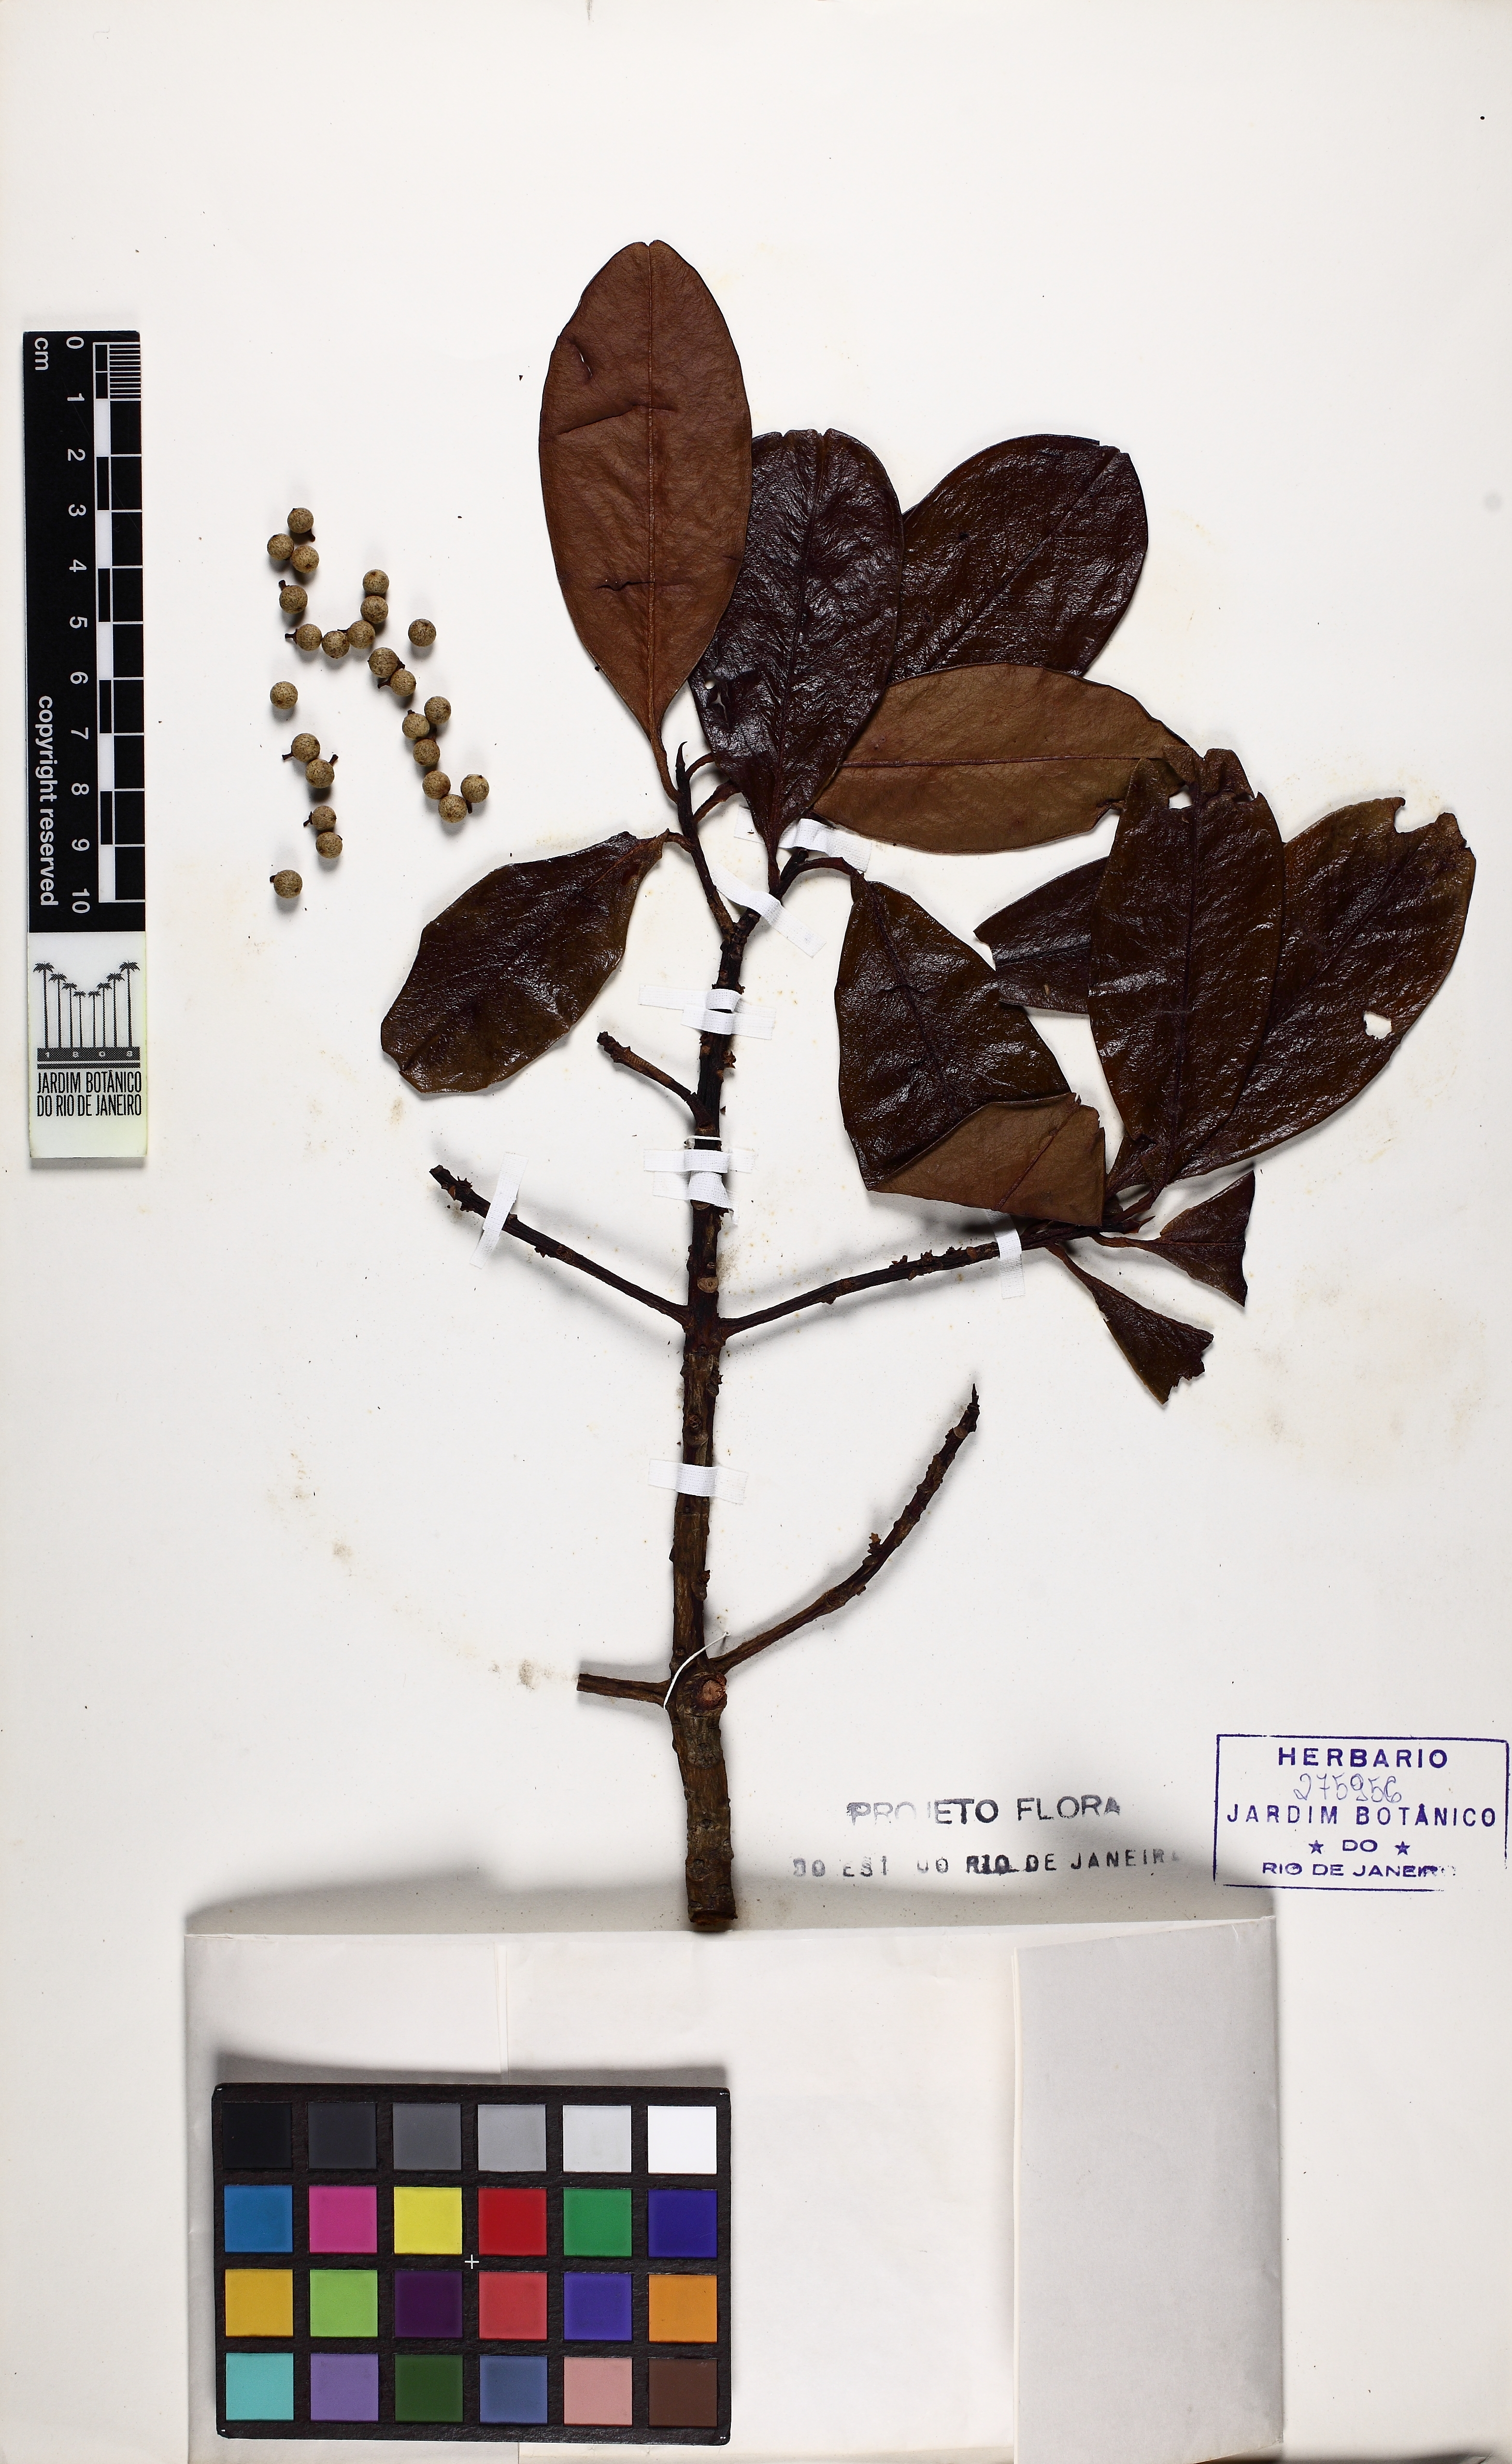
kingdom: Plantae
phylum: Tracheophyta
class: Magnoliopsida
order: Ericales
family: Primulaceae
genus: Myrsine
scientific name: Myrsine guianensis
